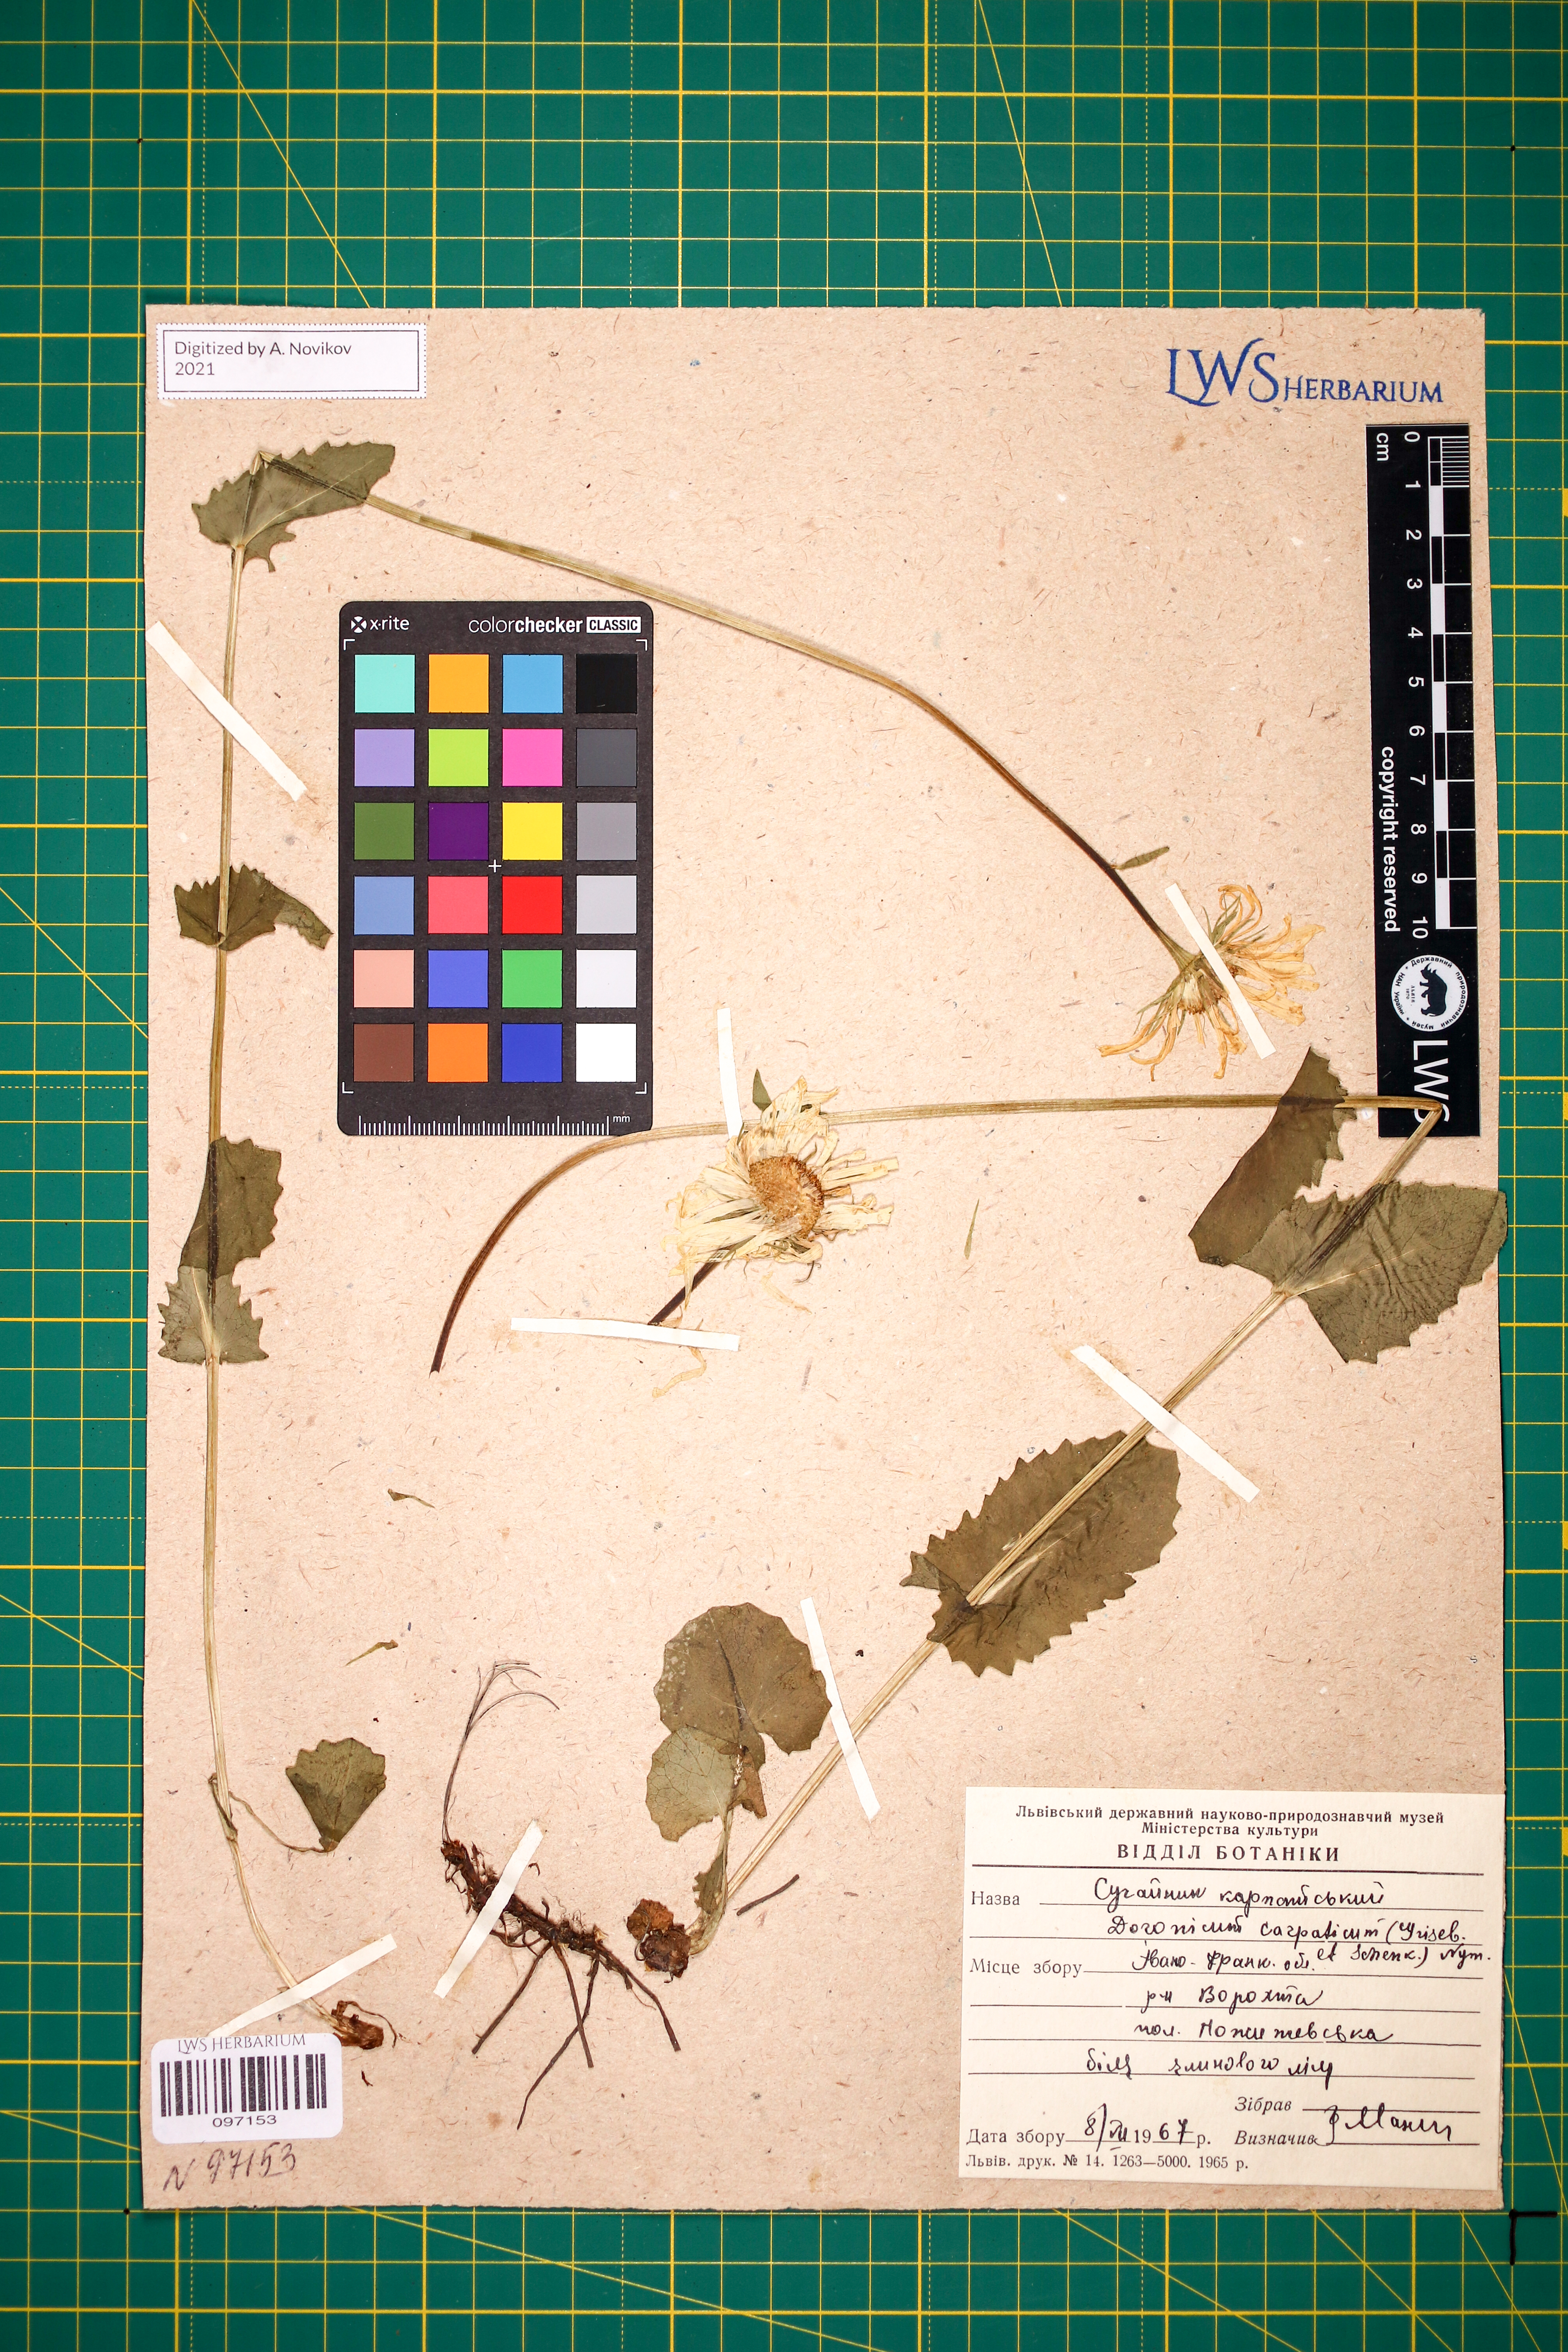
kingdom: Plantae
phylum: Tracheophyta
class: Magnoliopsida
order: Asterales
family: Asteraceae
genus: Doronicum
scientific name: Doronicum carpaticum
